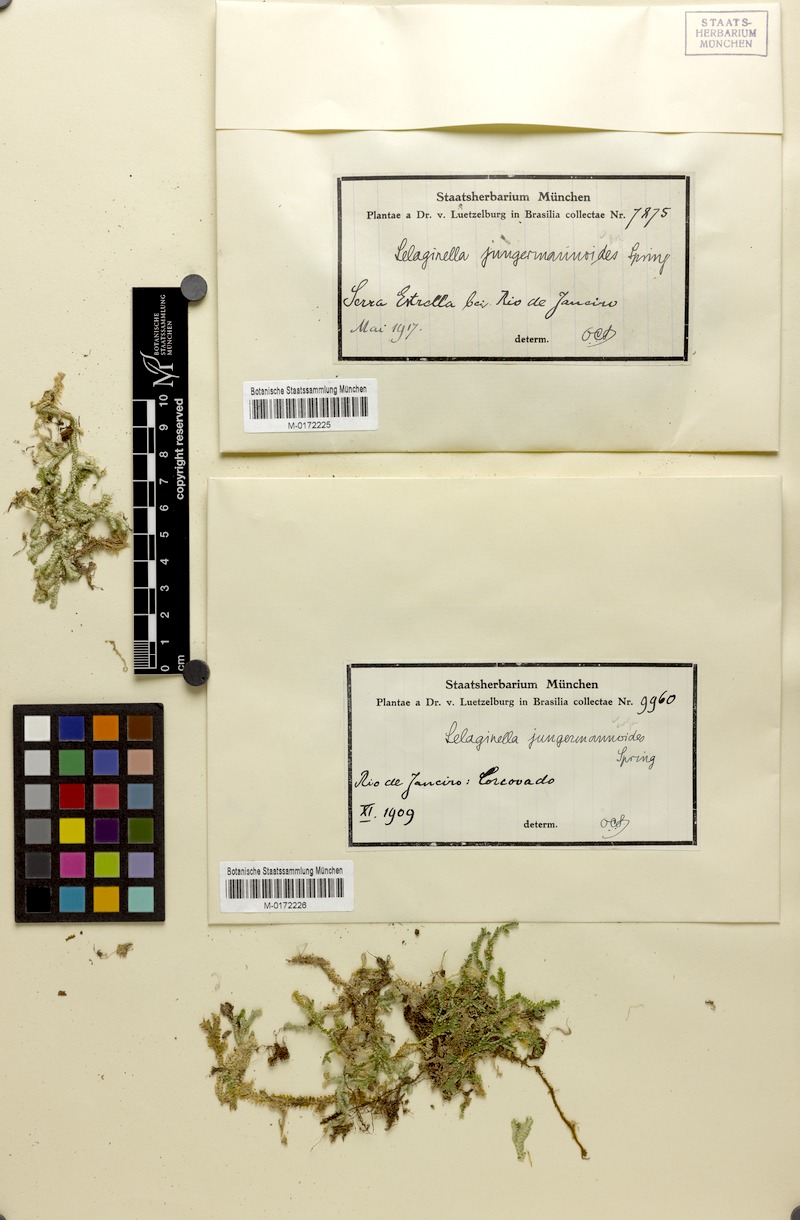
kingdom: Plantae
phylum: Tracheophyta
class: Lycopodiopsida
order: Selaginellales
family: Selaginellaceae
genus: Selaginella
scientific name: Selaginella jungermannioides
